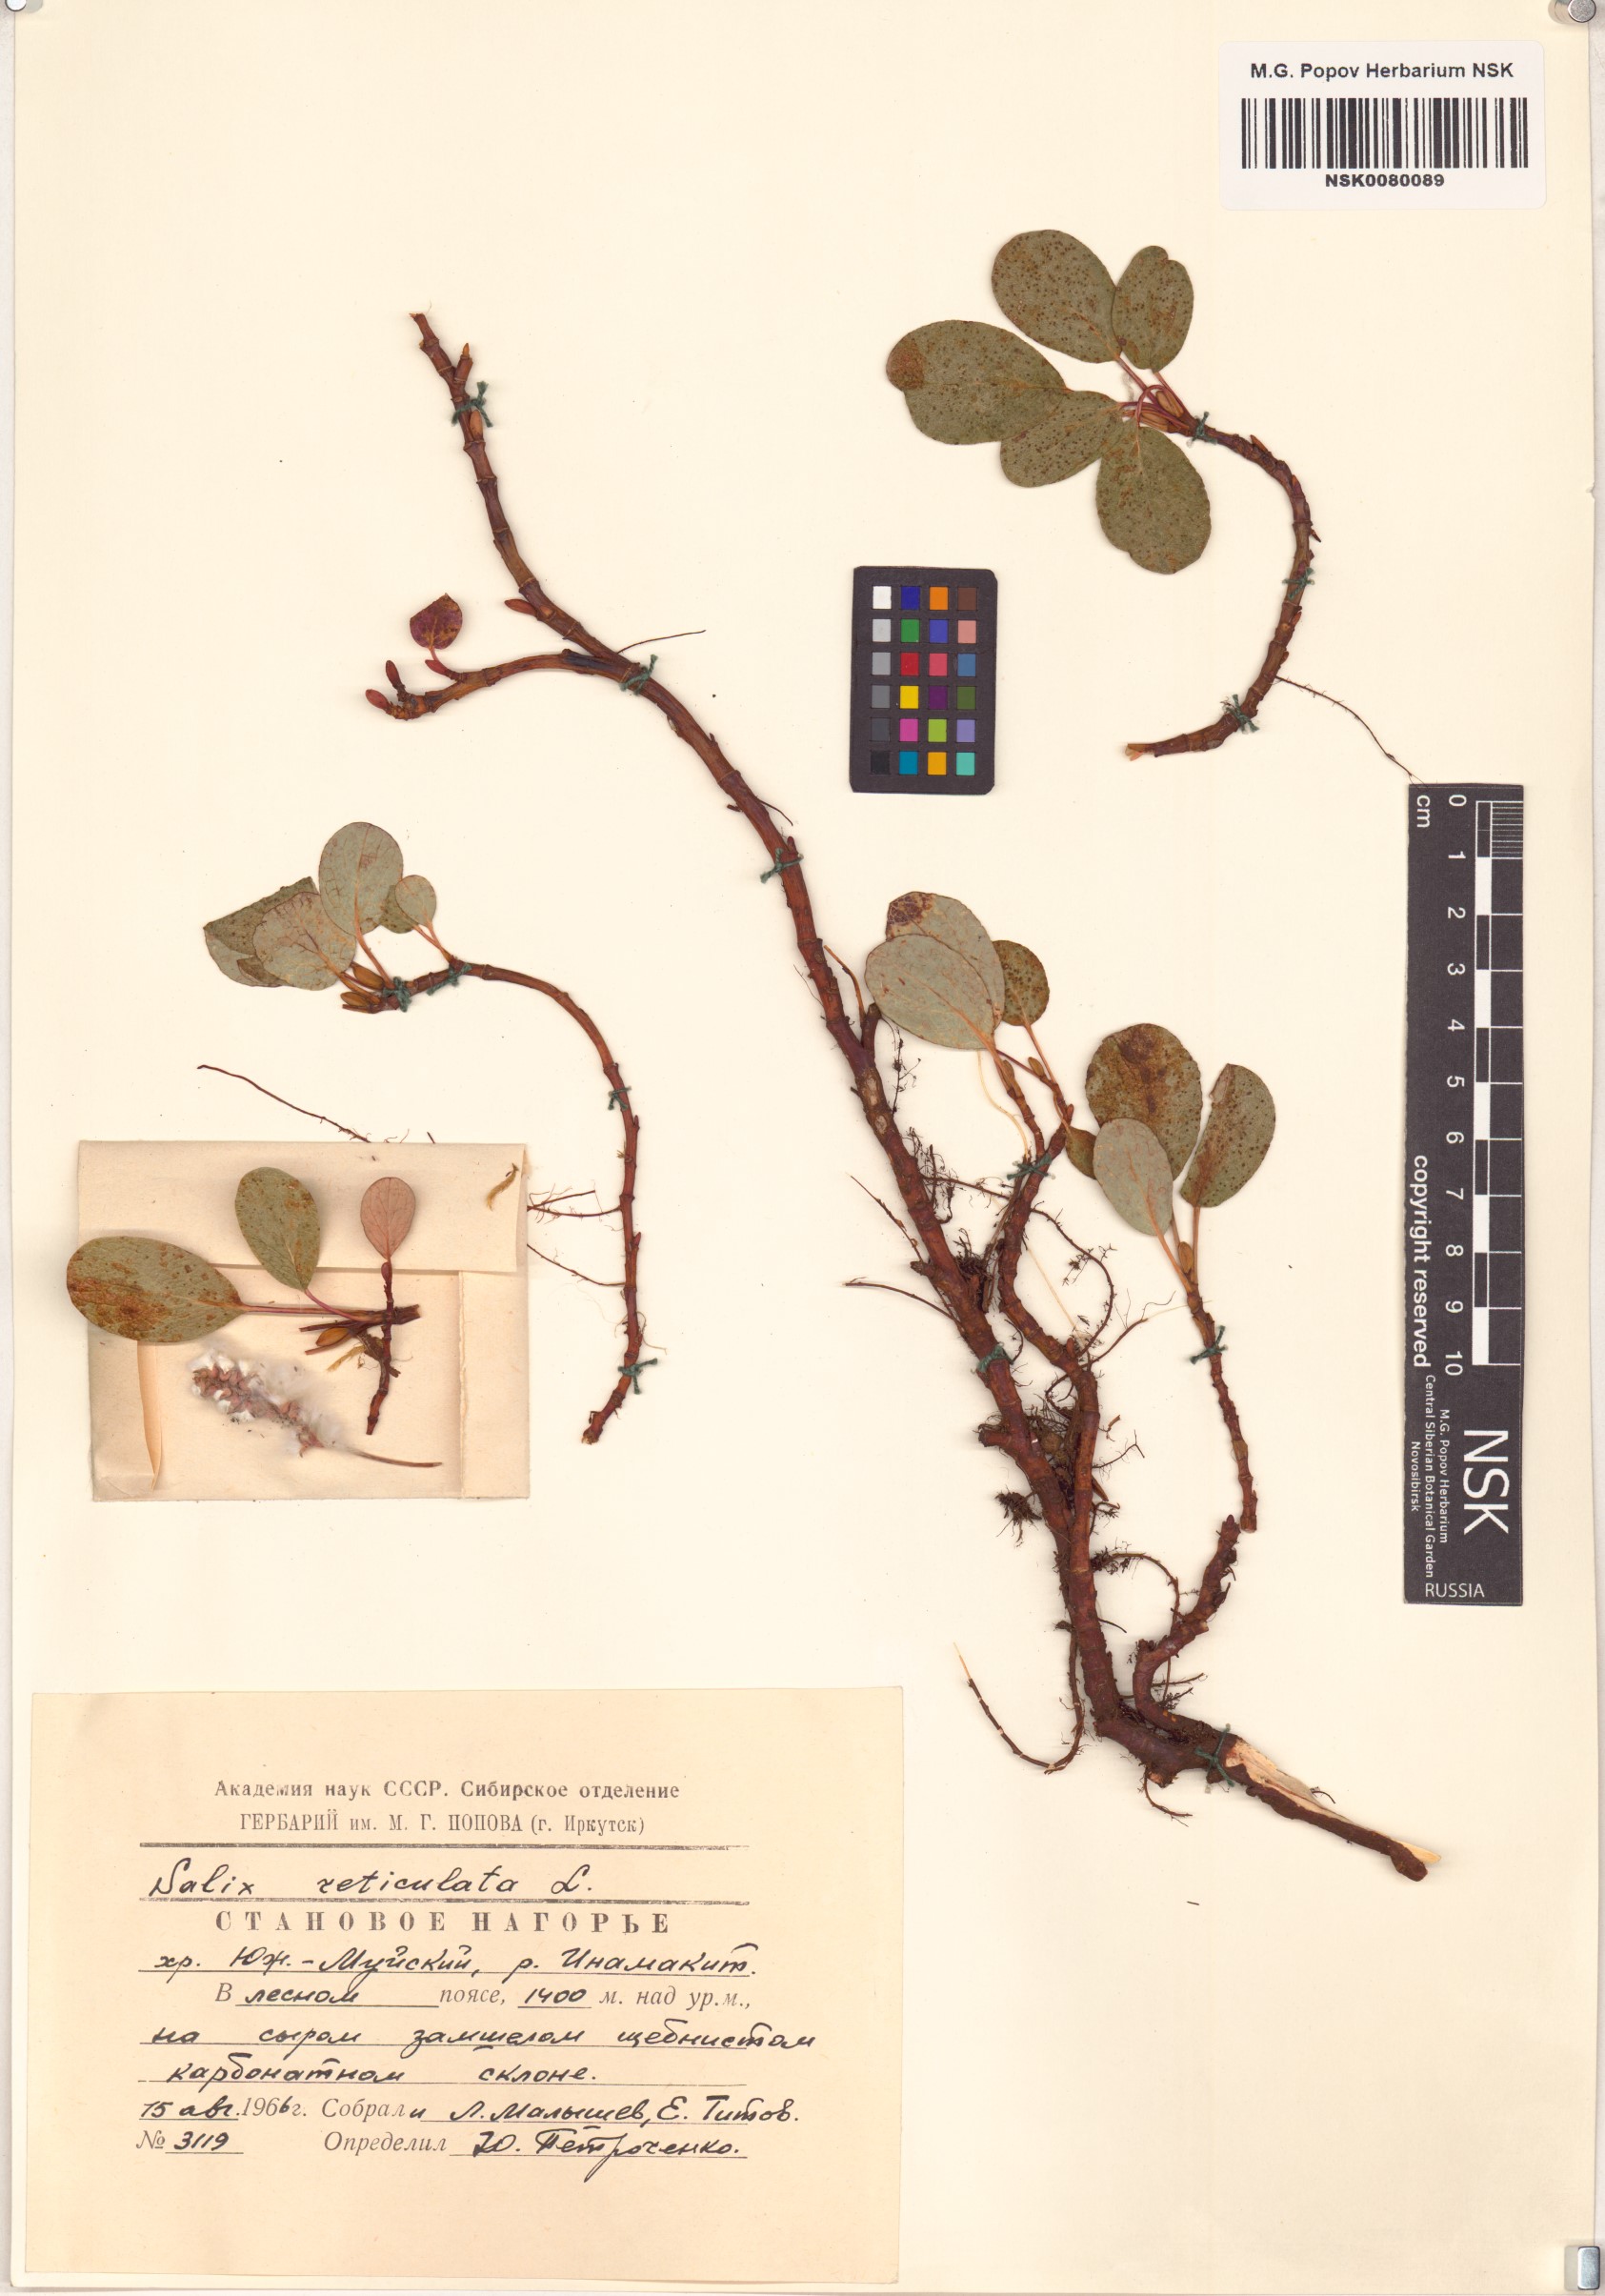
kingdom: Plantae
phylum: Tracheophyta
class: Magnoliopsida
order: Malpighiales
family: Salicaceae
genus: Salix
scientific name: Salix reticulata
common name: Net-leaved willow
